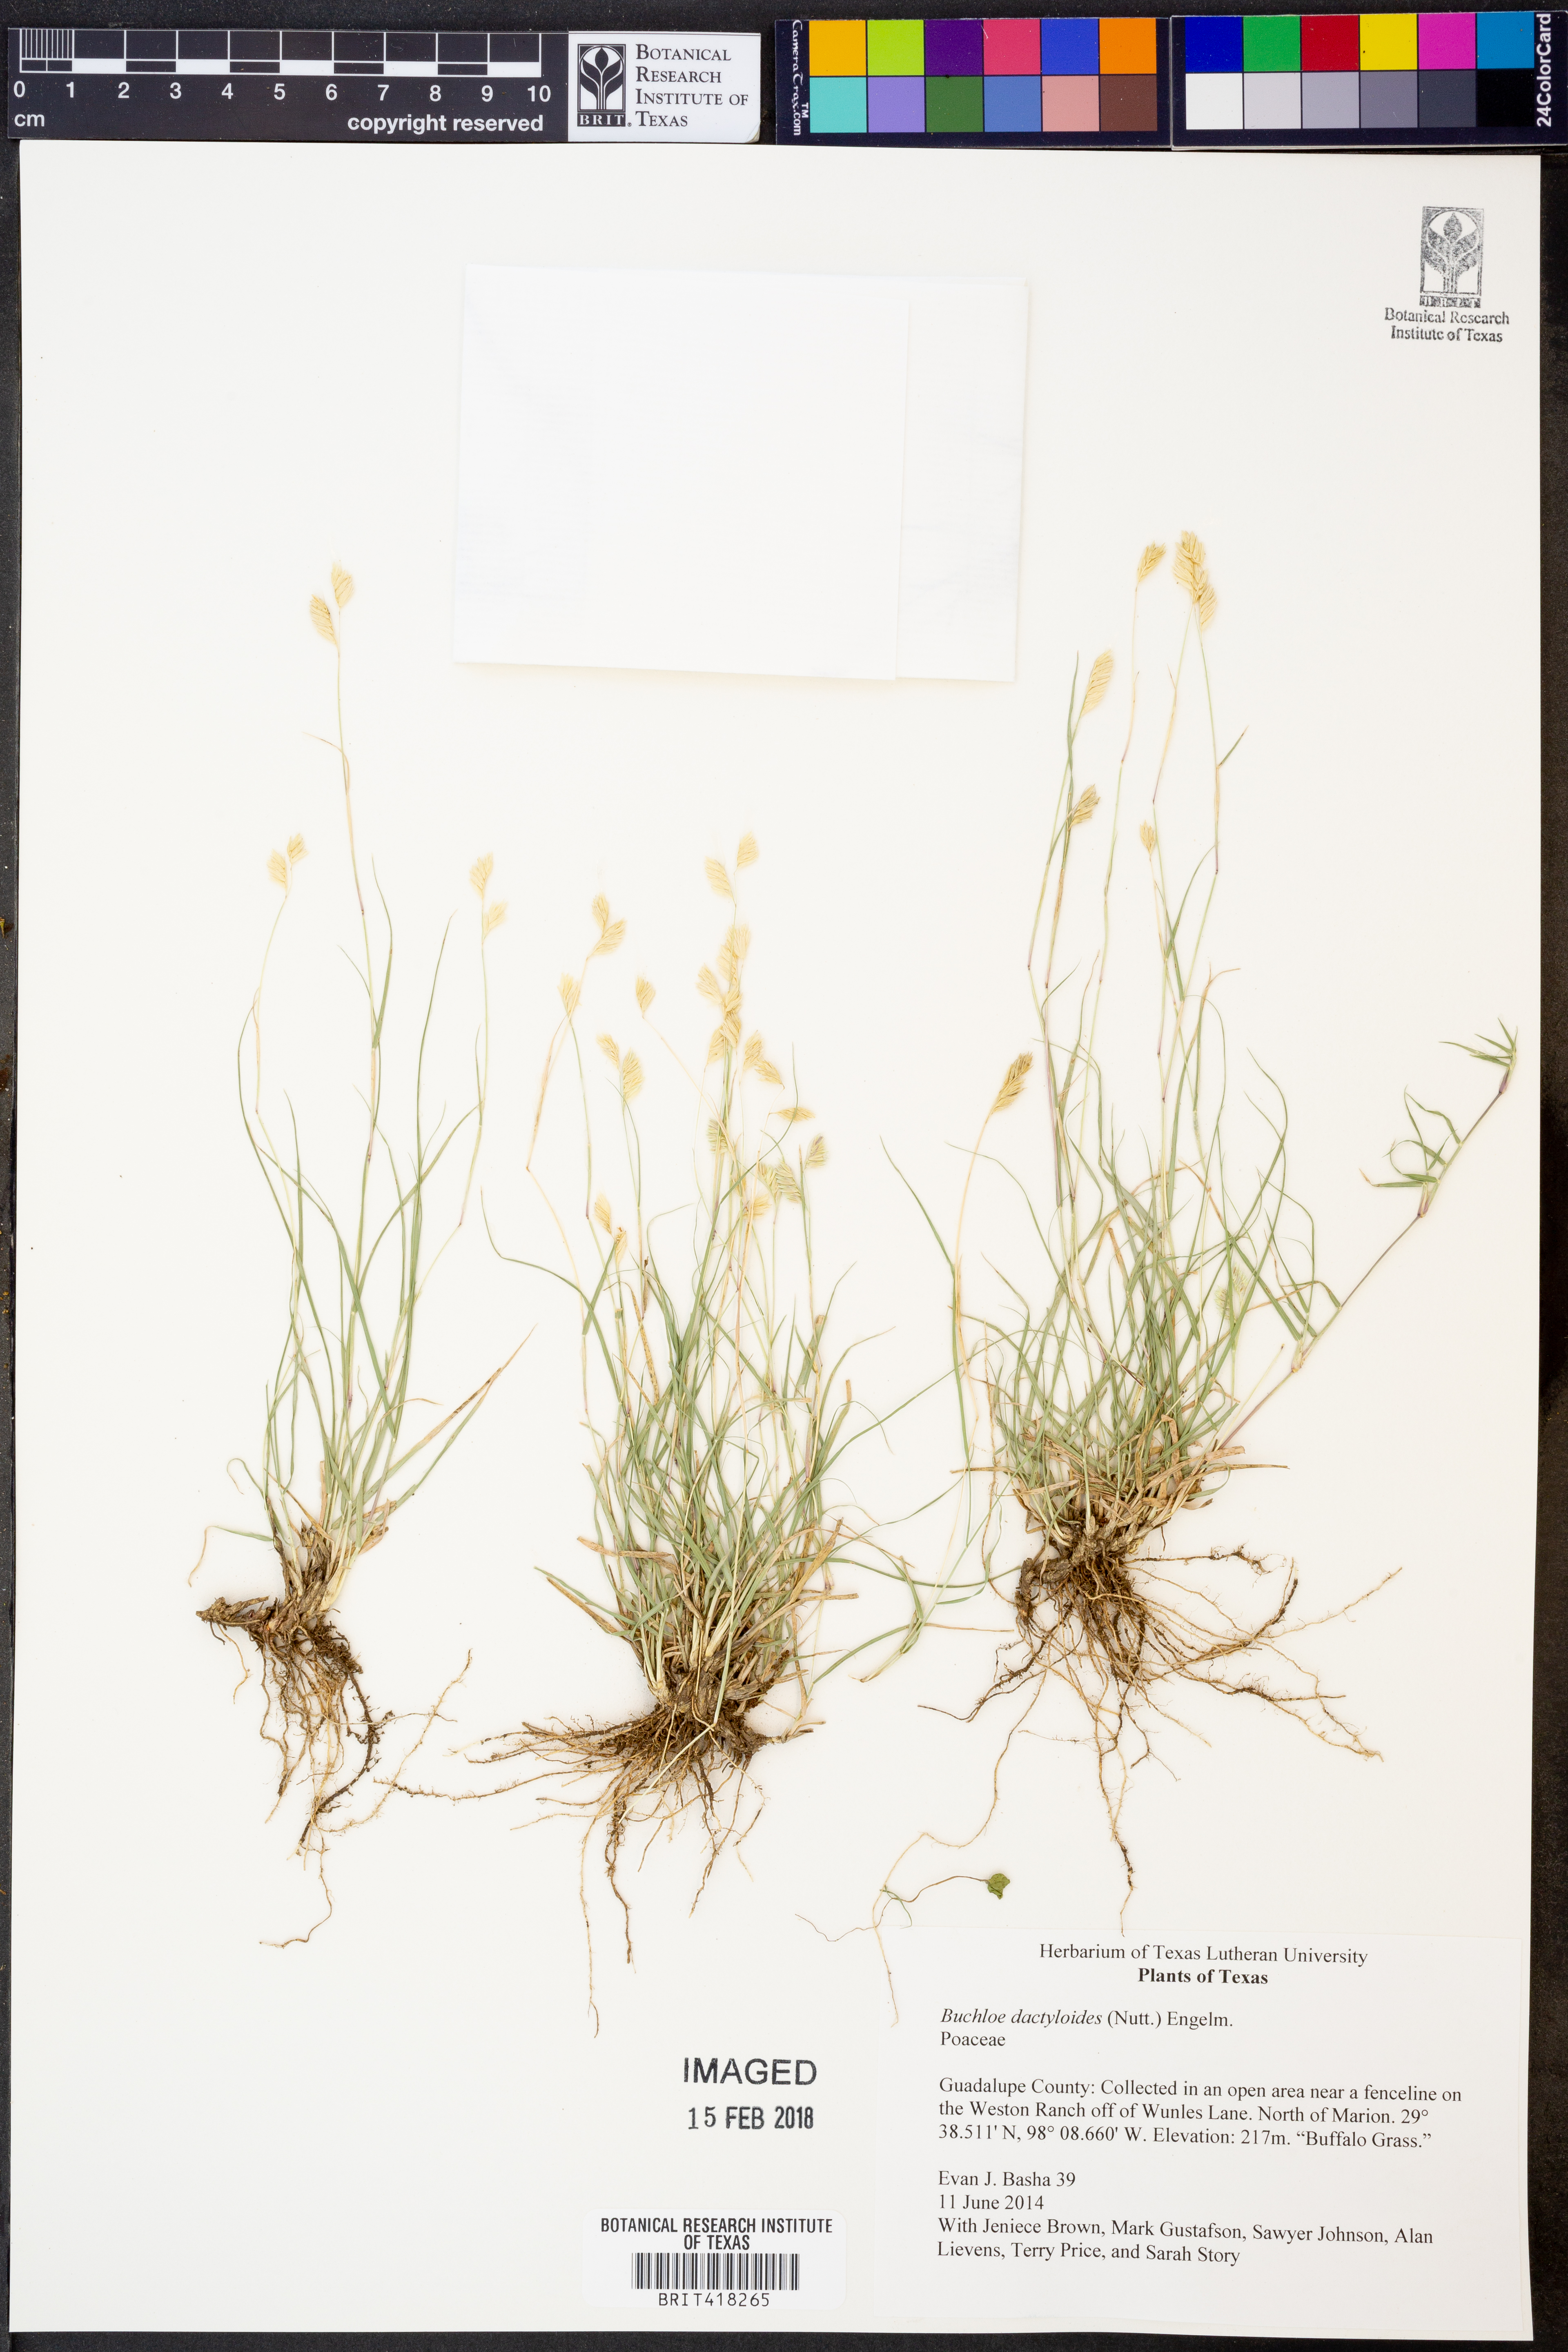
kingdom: Plantae
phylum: Tracheophyta
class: Liliopsida
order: Poales
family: Poaceae
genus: Bouteloua
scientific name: Bouteloua dactyloides
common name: Buffalo grass
